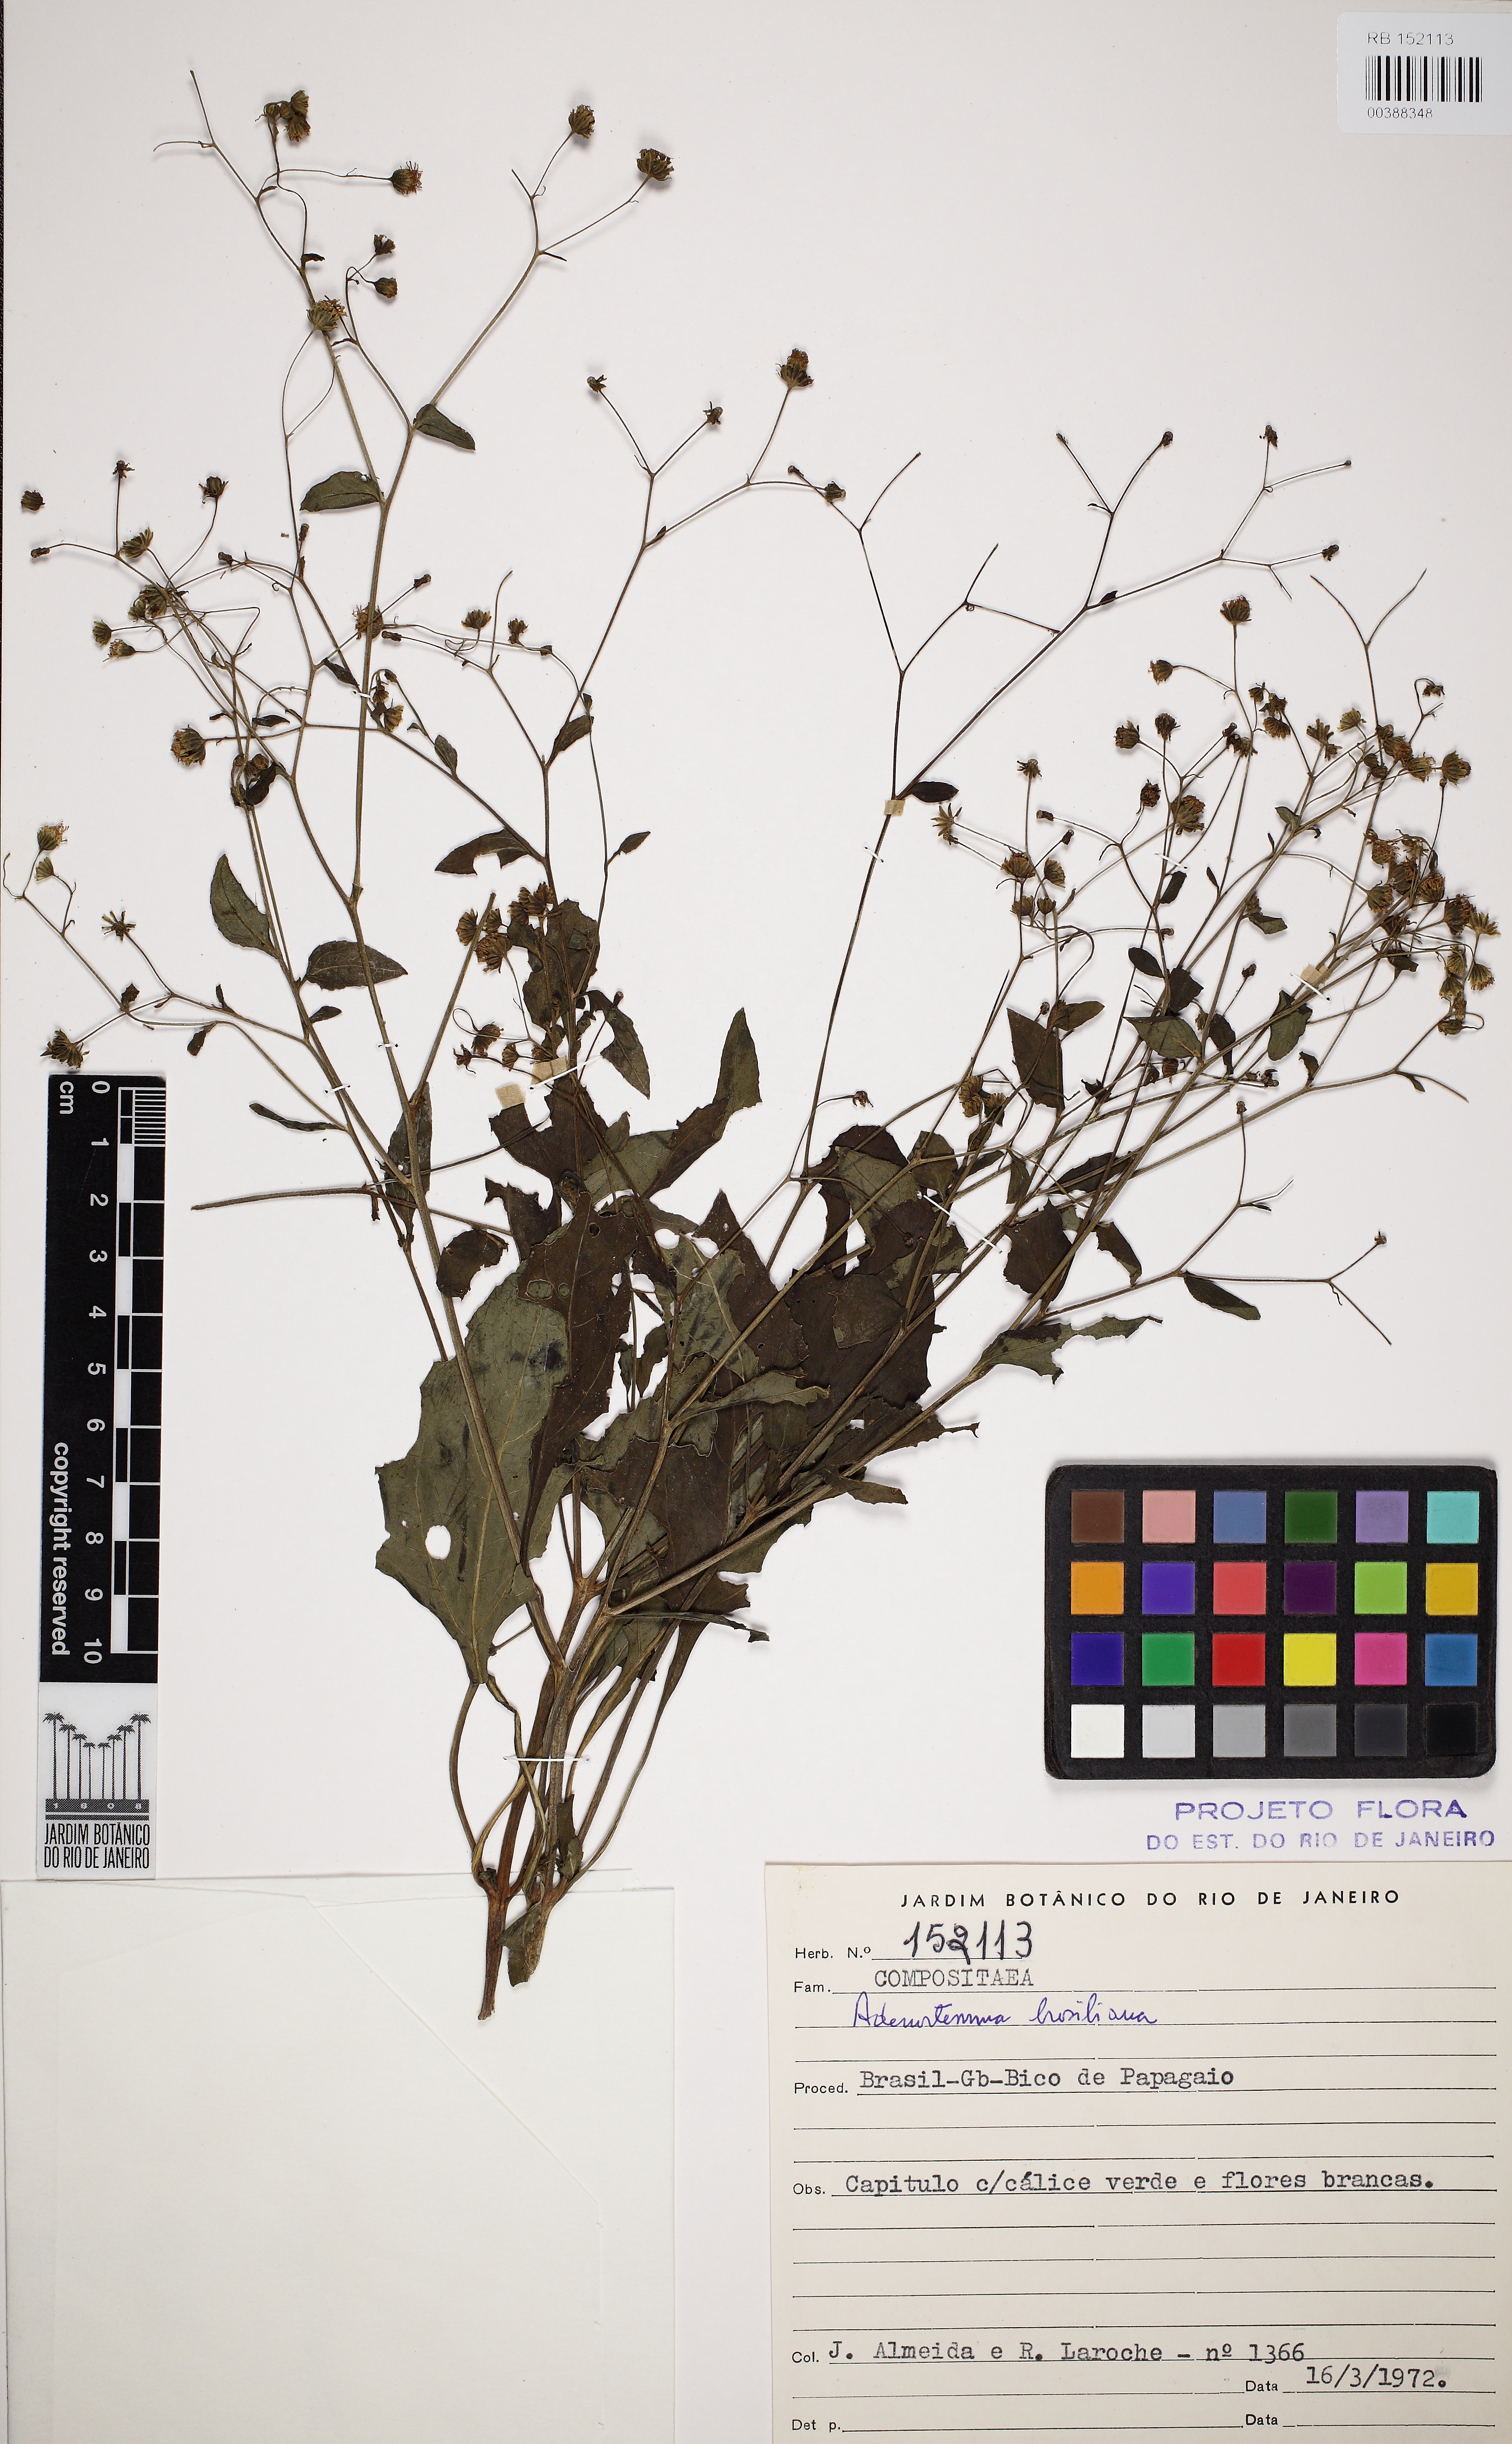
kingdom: Plantae
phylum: Tracheophyta
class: Magnoliopsida
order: Asterales
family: Asteraceae
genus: Adenostemma
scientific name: Adenostemma brasilianum
